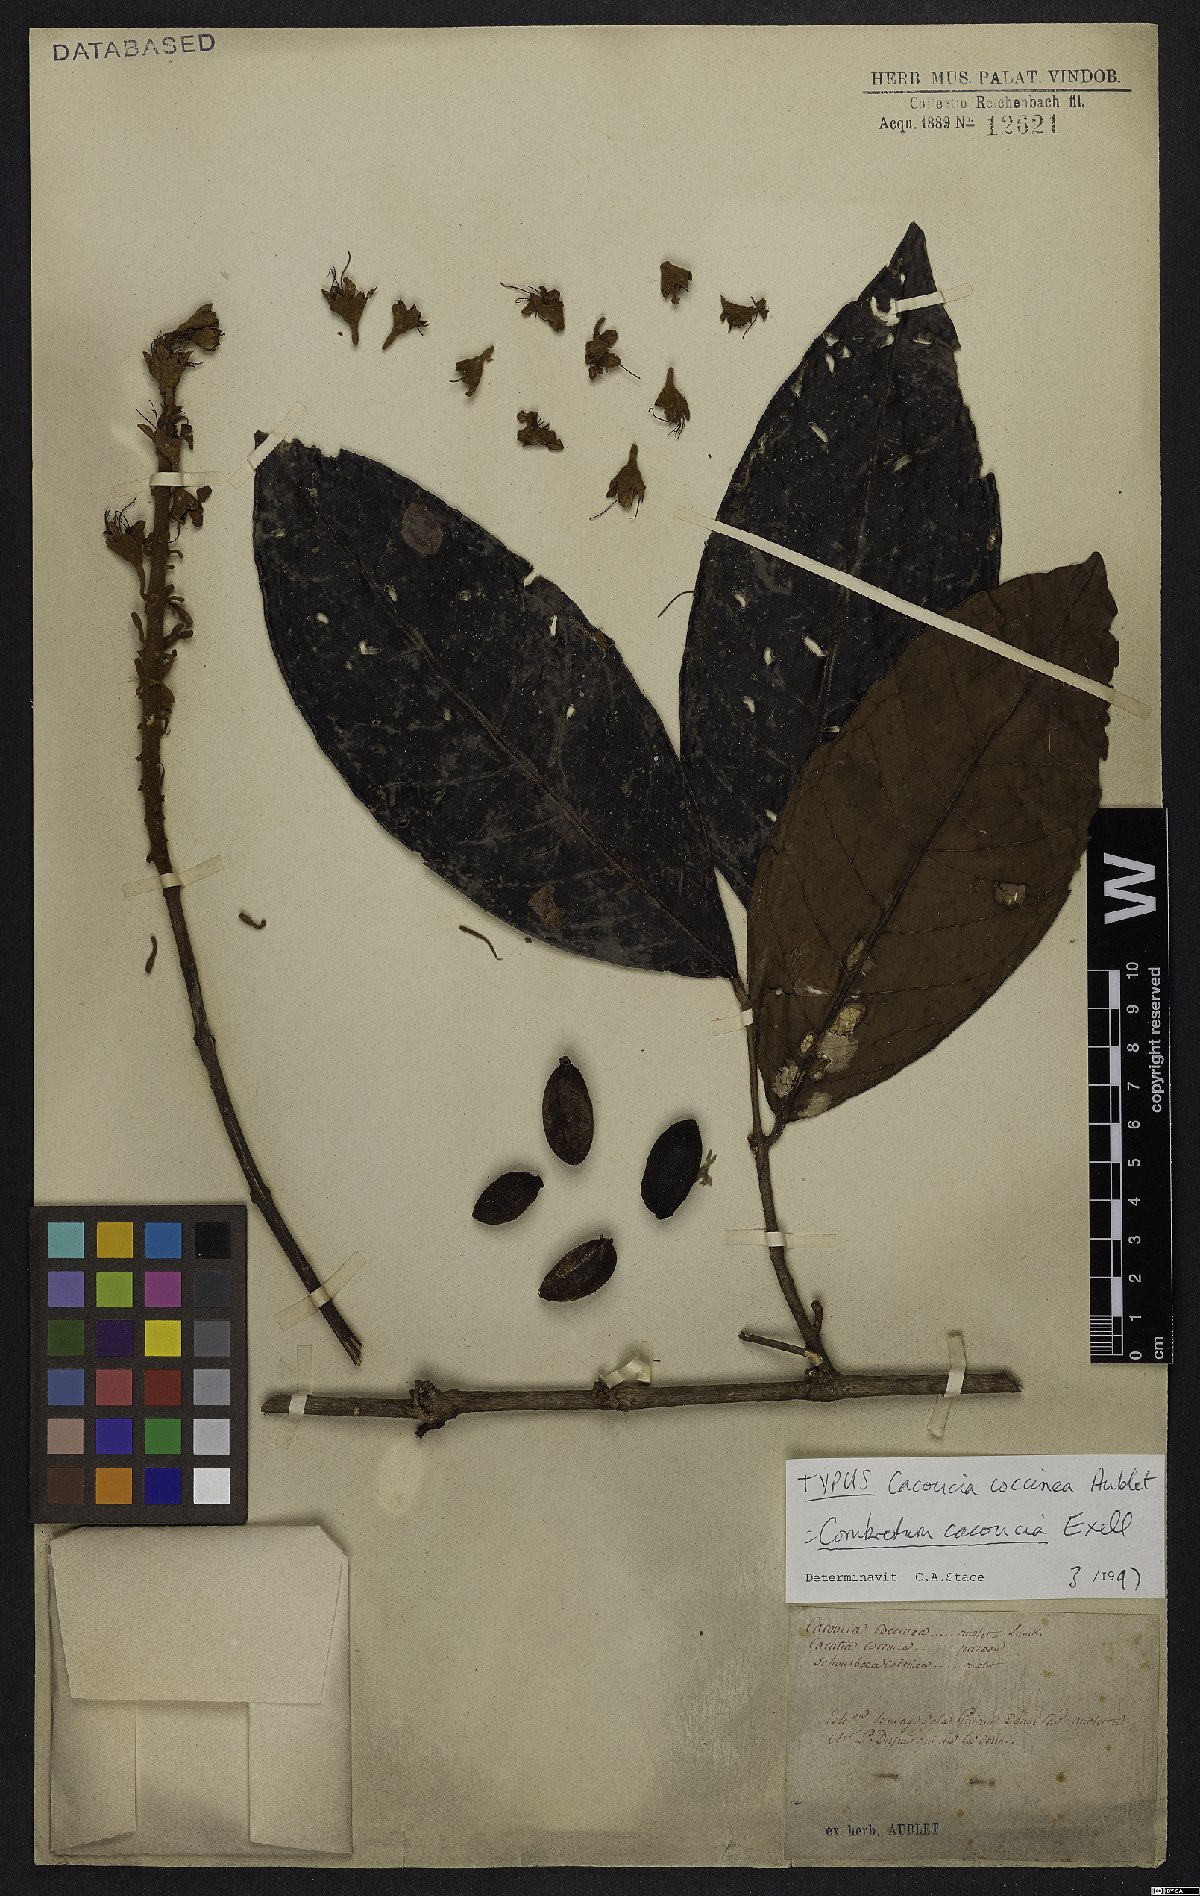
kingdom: Plantae
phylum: Tracheophyta
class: Magnoliopsida
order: Myrtales
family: Combretaceae
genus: Combretum
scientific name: Combretum cacoucia
